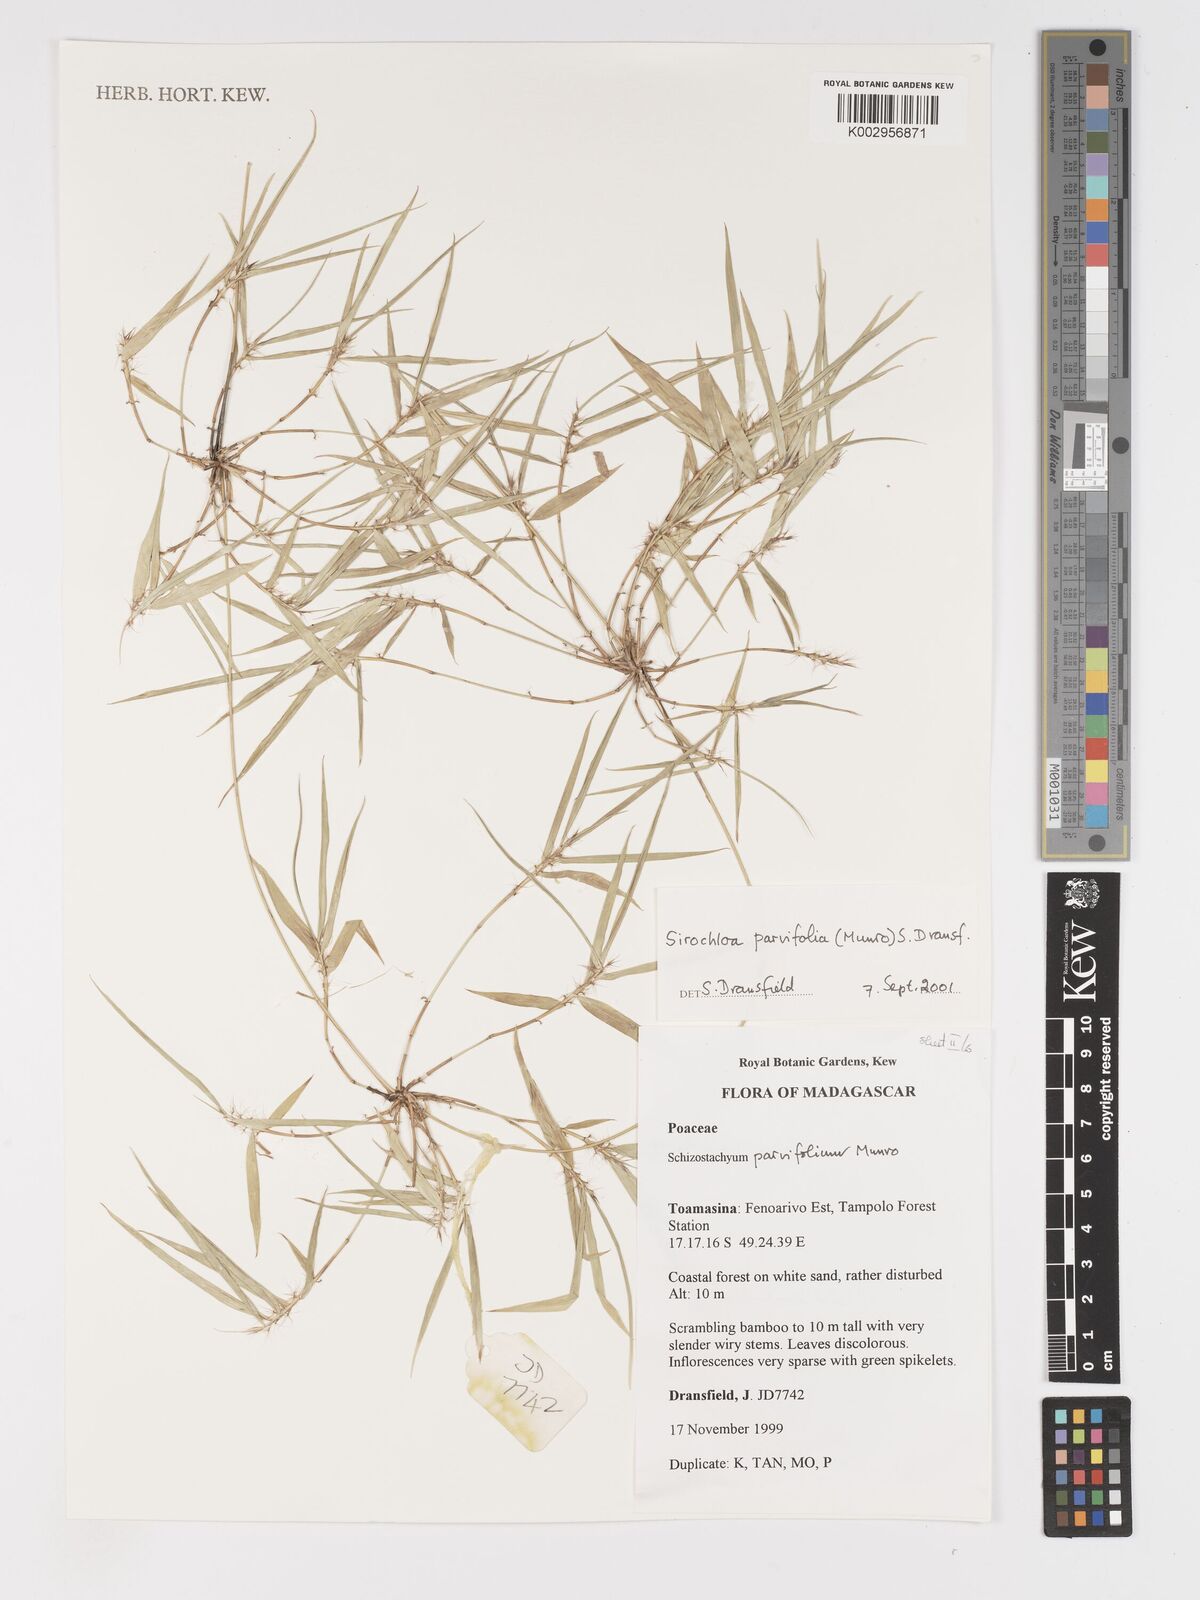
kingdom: Plantae
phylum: Tracheophyta
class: Liliopsida
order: Poales
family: Poaceae
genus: Sirochloa
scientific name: Sirochloa parvifolia
